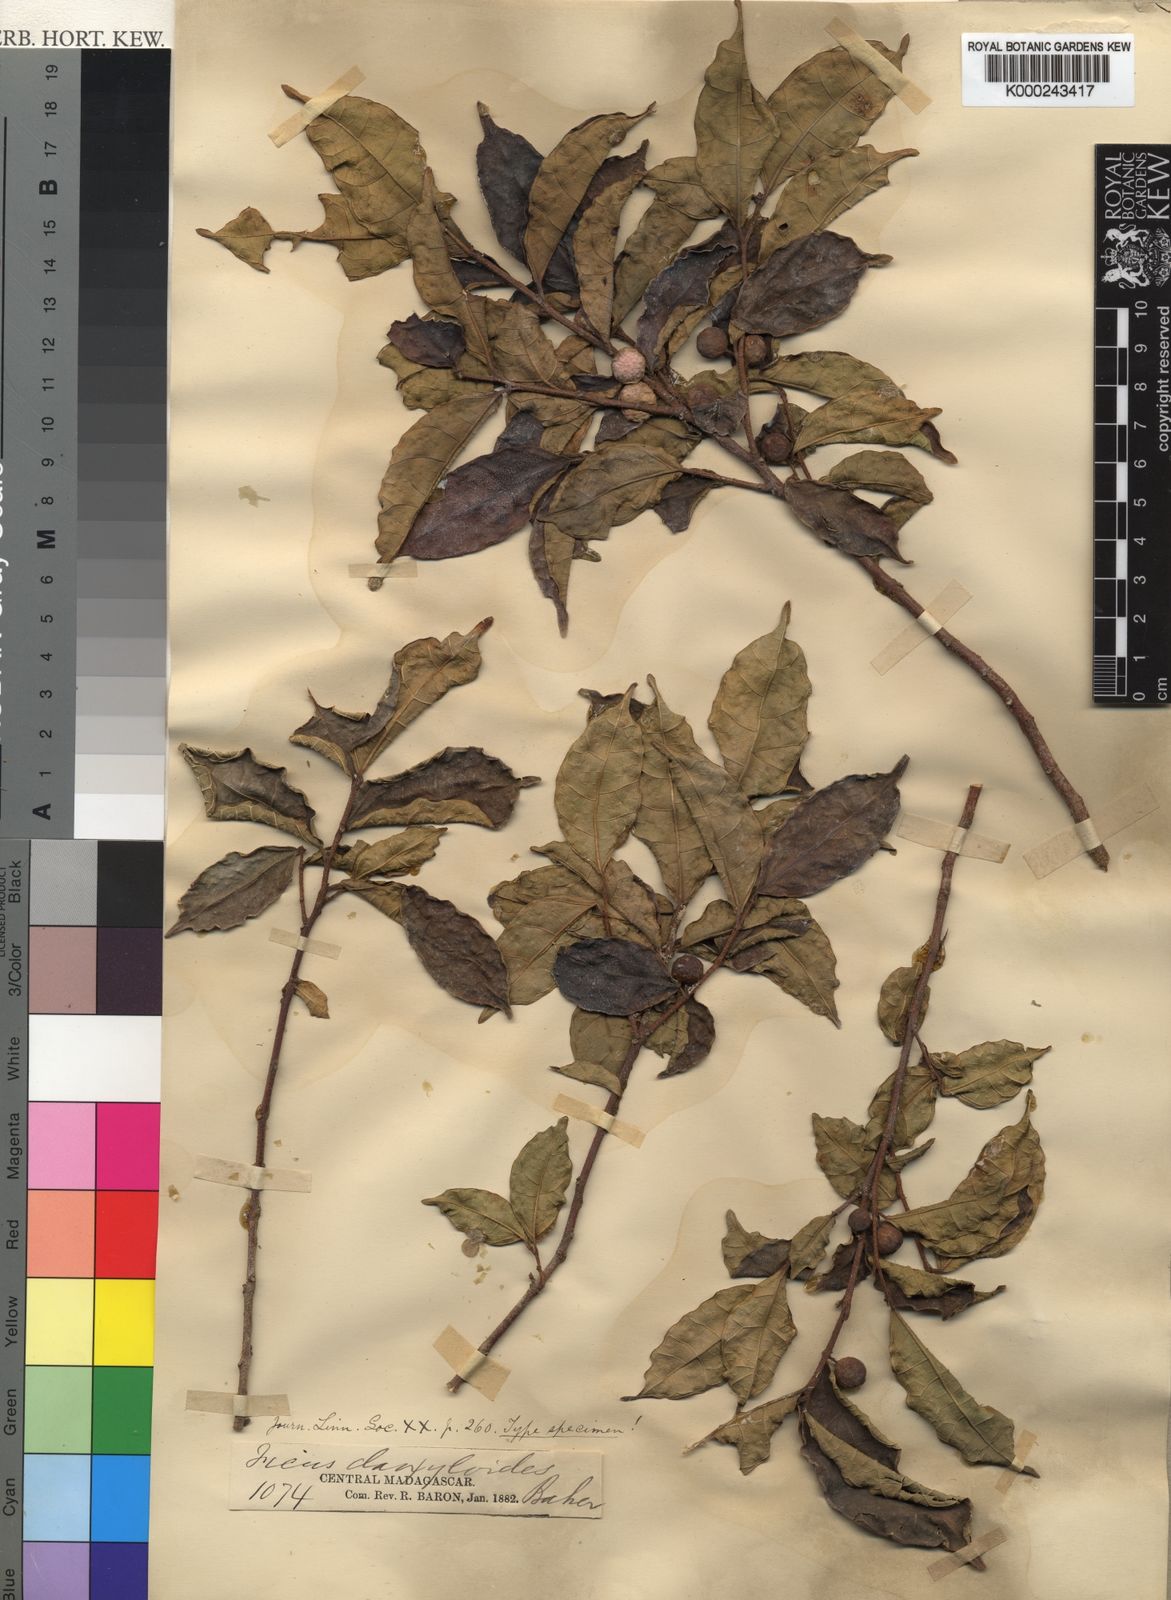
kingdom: Plantae
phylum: Tracheophyta
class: Magnoliopsida
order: Rosales
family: Moraceae
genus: Ficus
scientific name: Ficus exasperata
